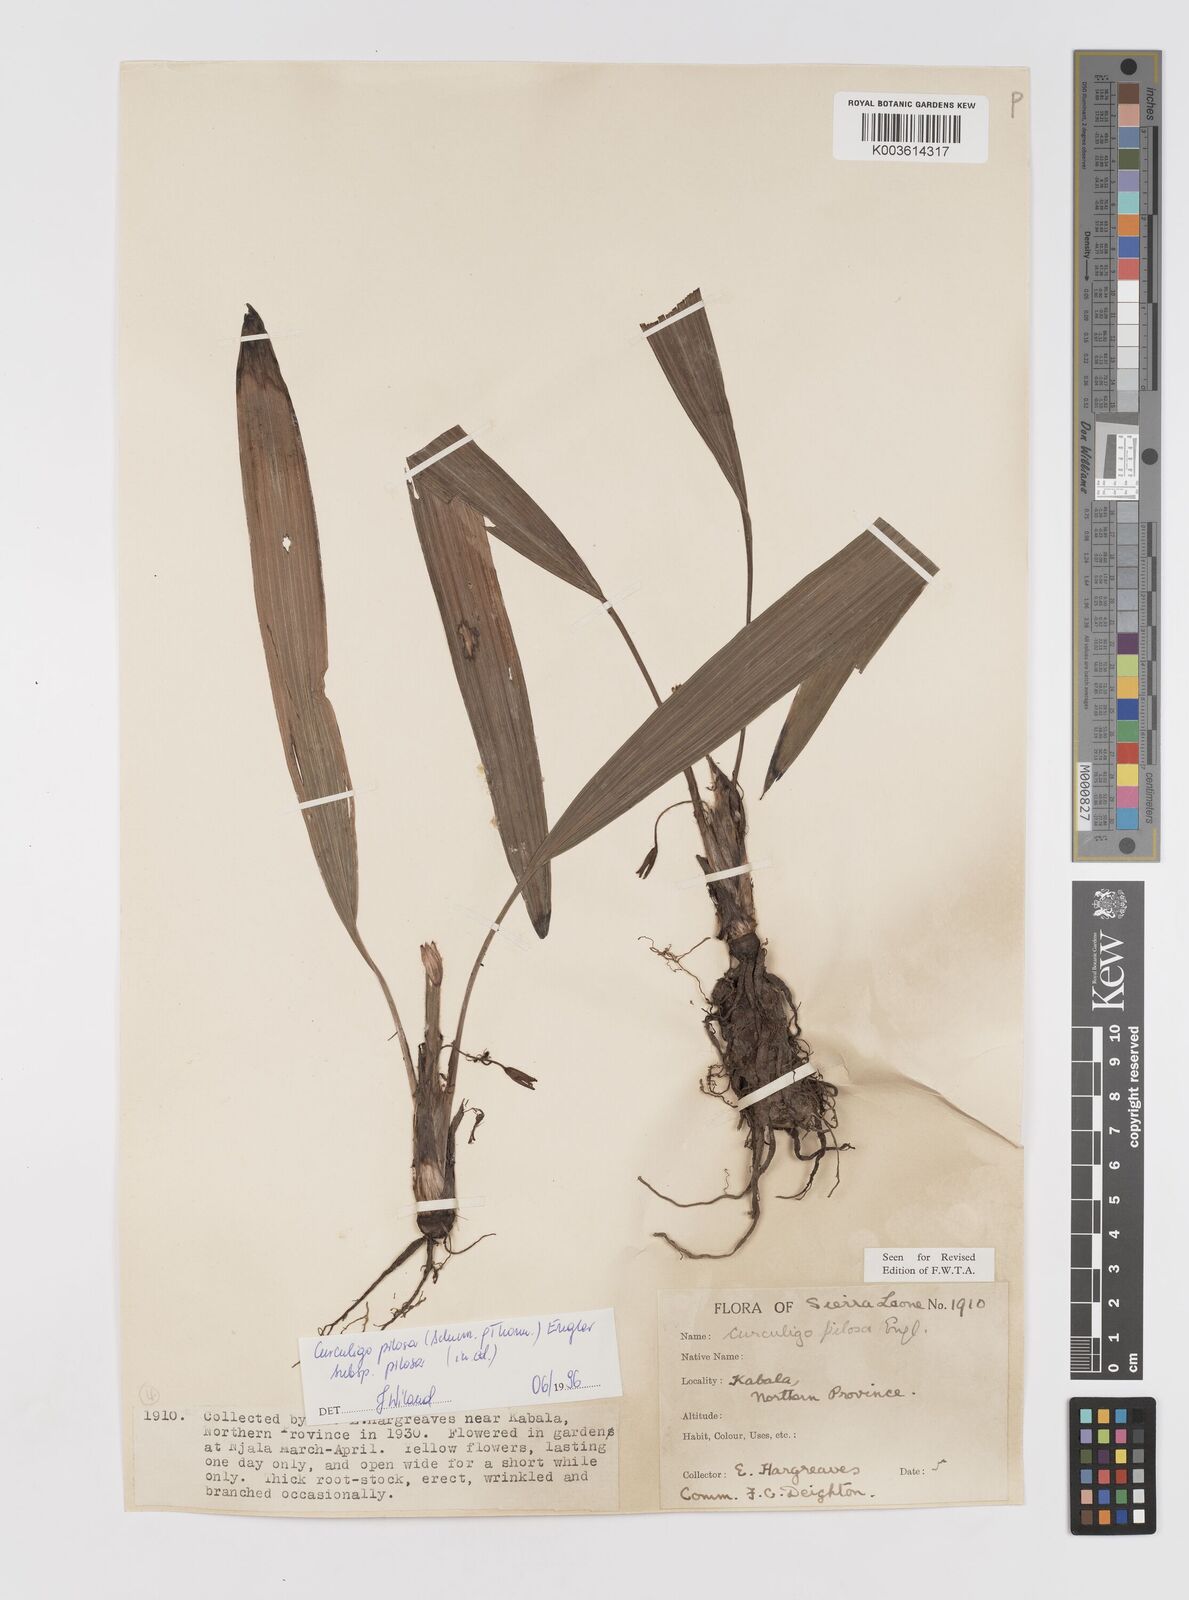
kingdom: Plantae
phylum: Tracheophyta
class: Liliopsida
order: Asparagales
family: Hypoxidaceae
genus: Curculigo
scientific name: Curculigo pilosa
